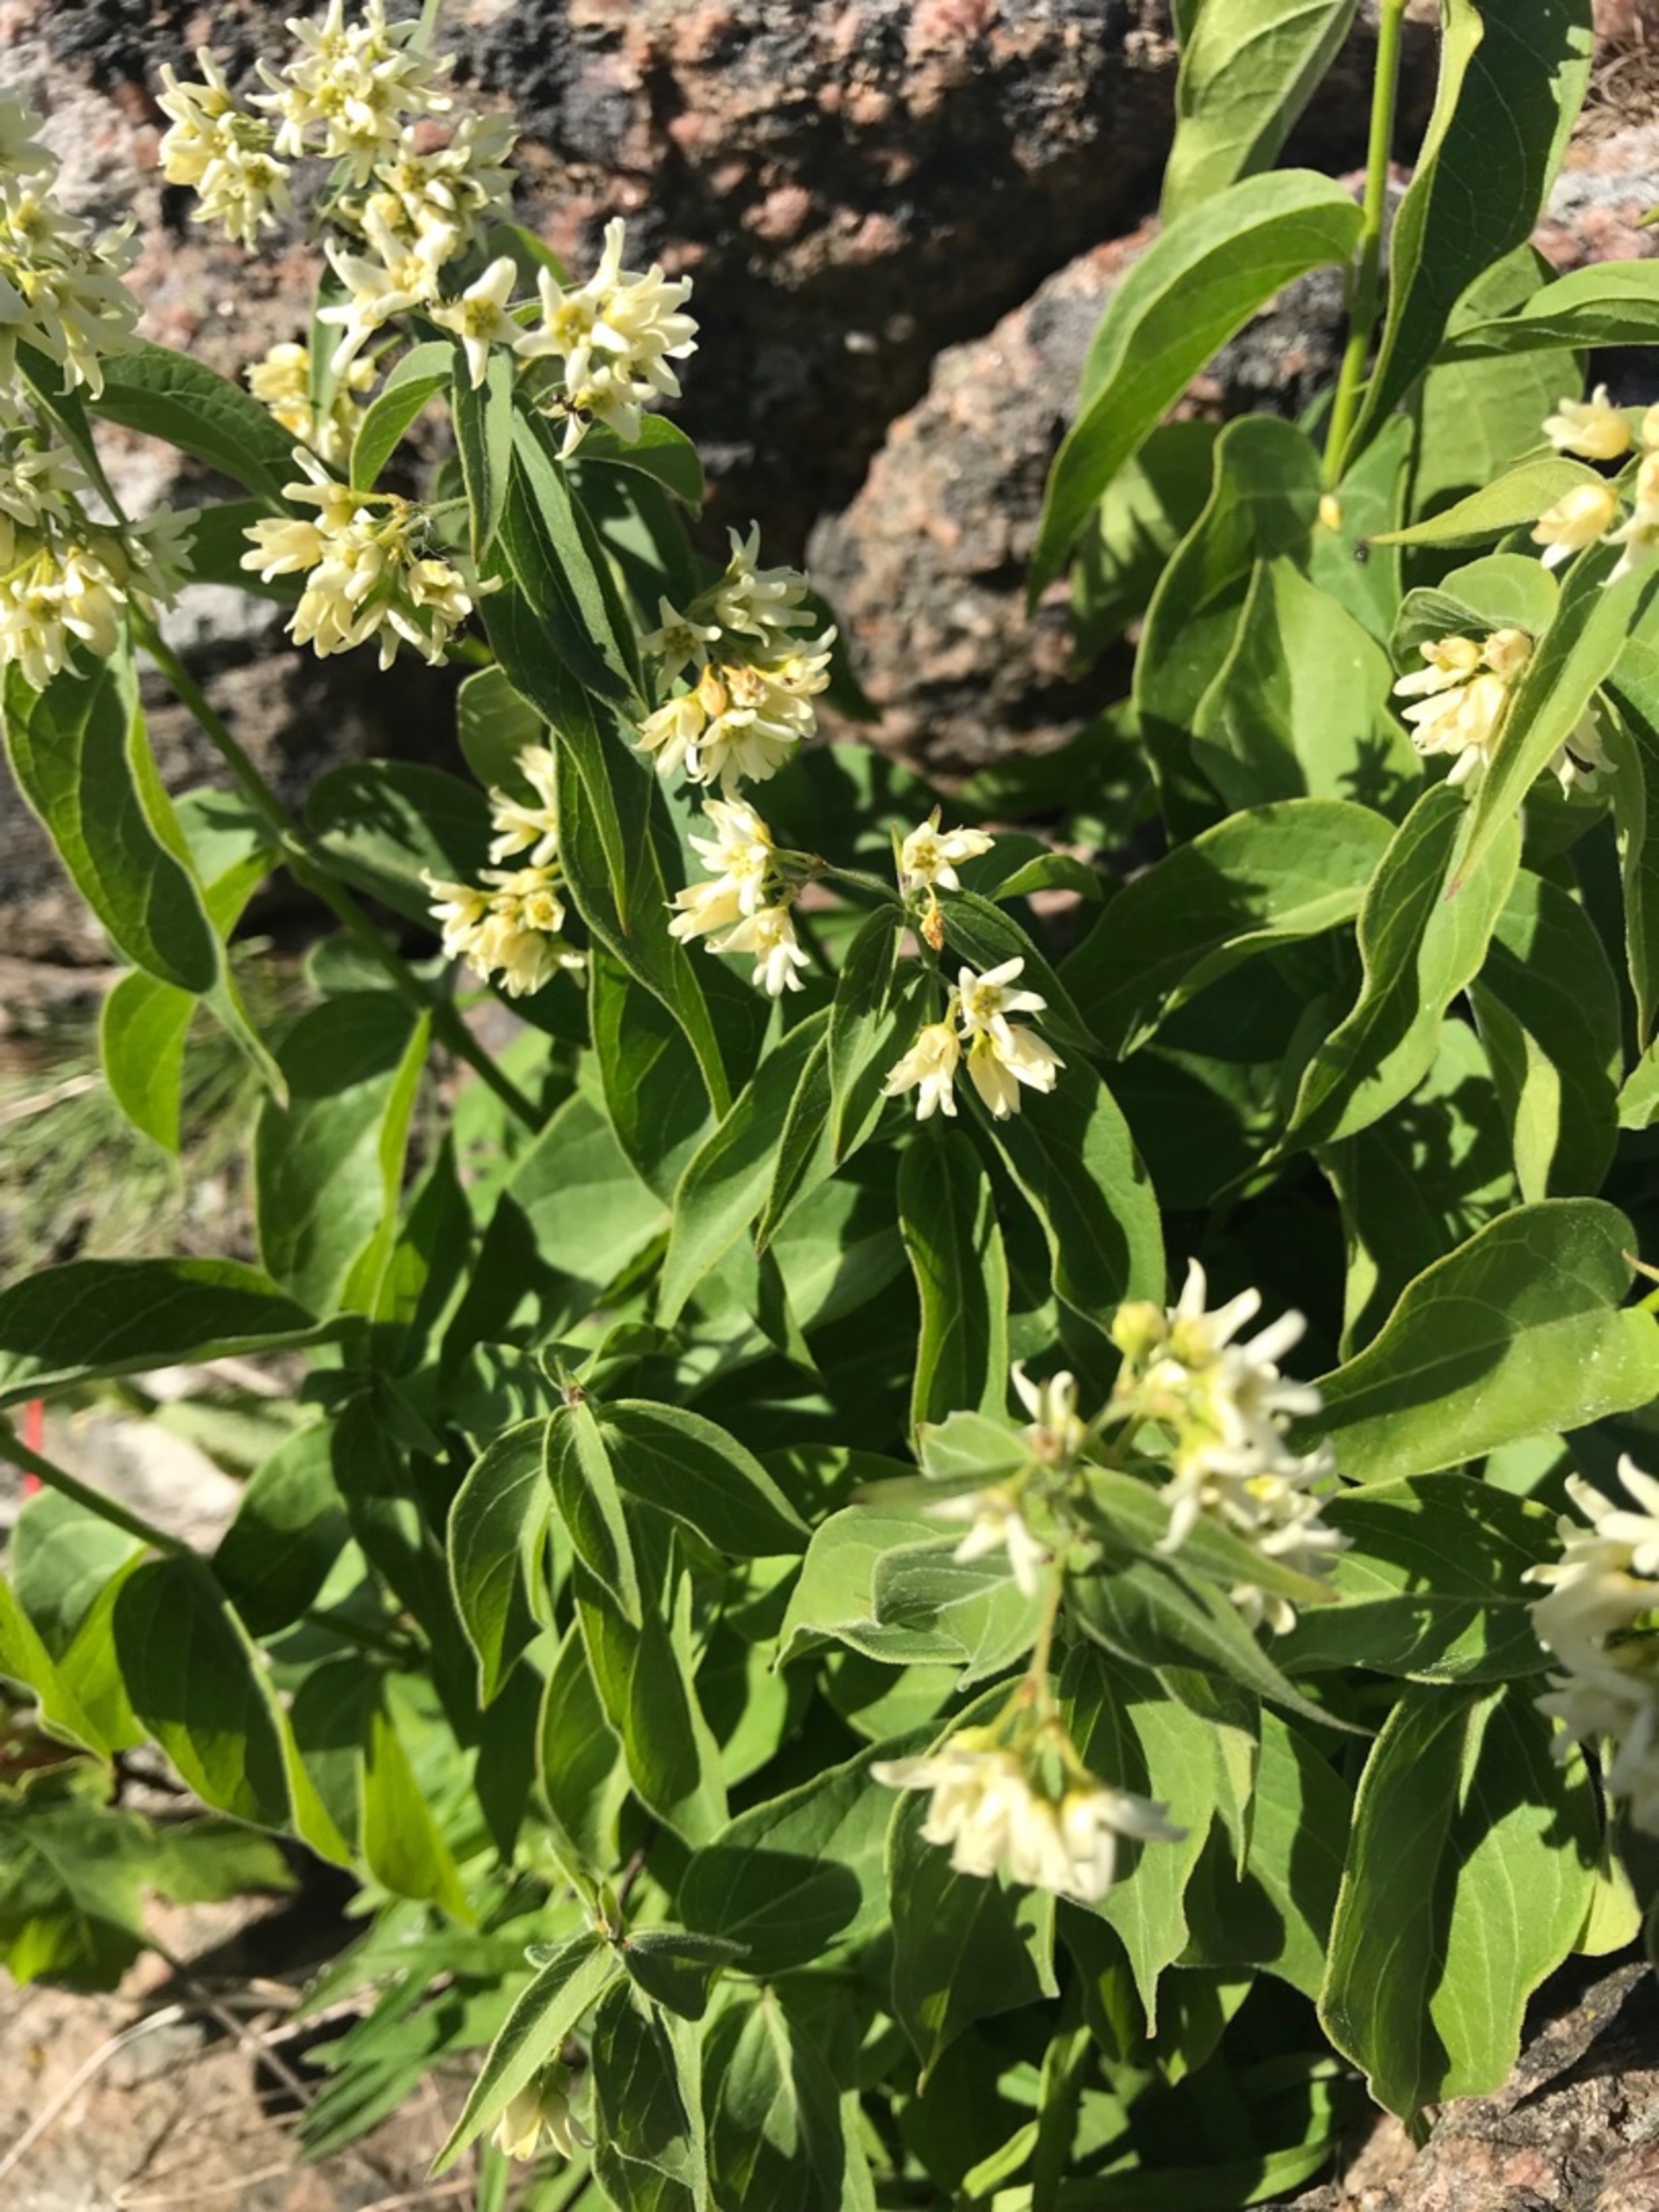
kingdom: Plantae
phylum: Tracheophyta
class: Magnoliopsida
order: Gentianales
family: Apocynaceae
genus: Vincetoxicum
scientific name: Vincetoxicum hirundinaria
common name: Svalerod
